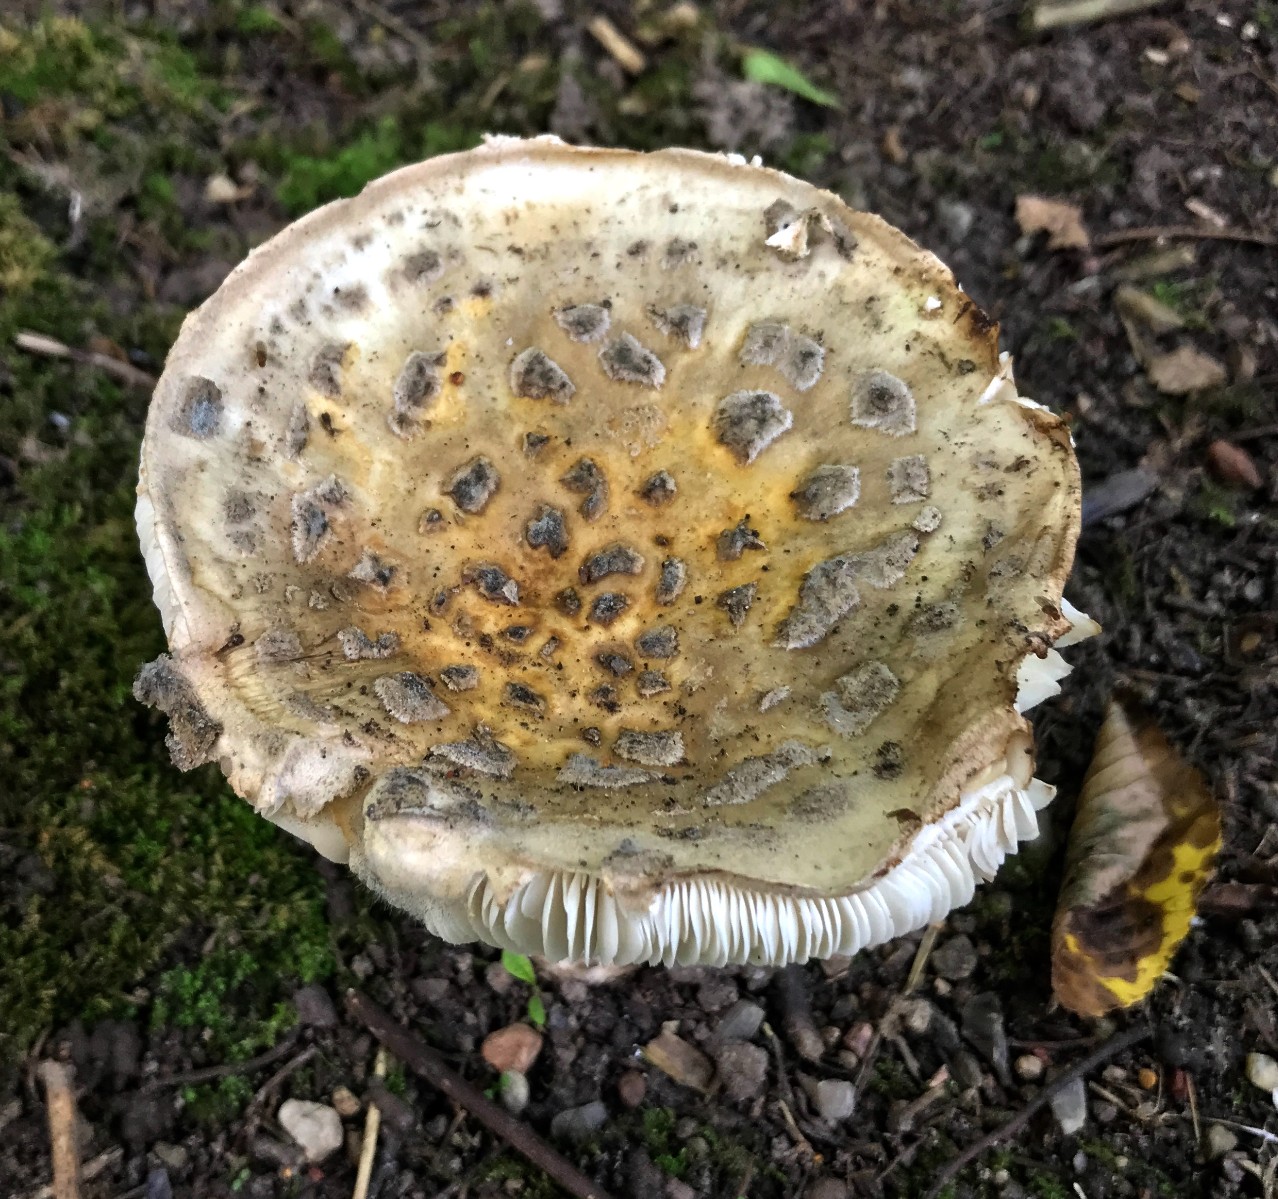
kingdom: Fungi
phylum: Basidiomycota
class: Agaricomycetes
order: Agaricales
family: Amanitaceae
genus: Amanita
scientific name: Amanita rubescens
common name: rødmende fluesvamp
